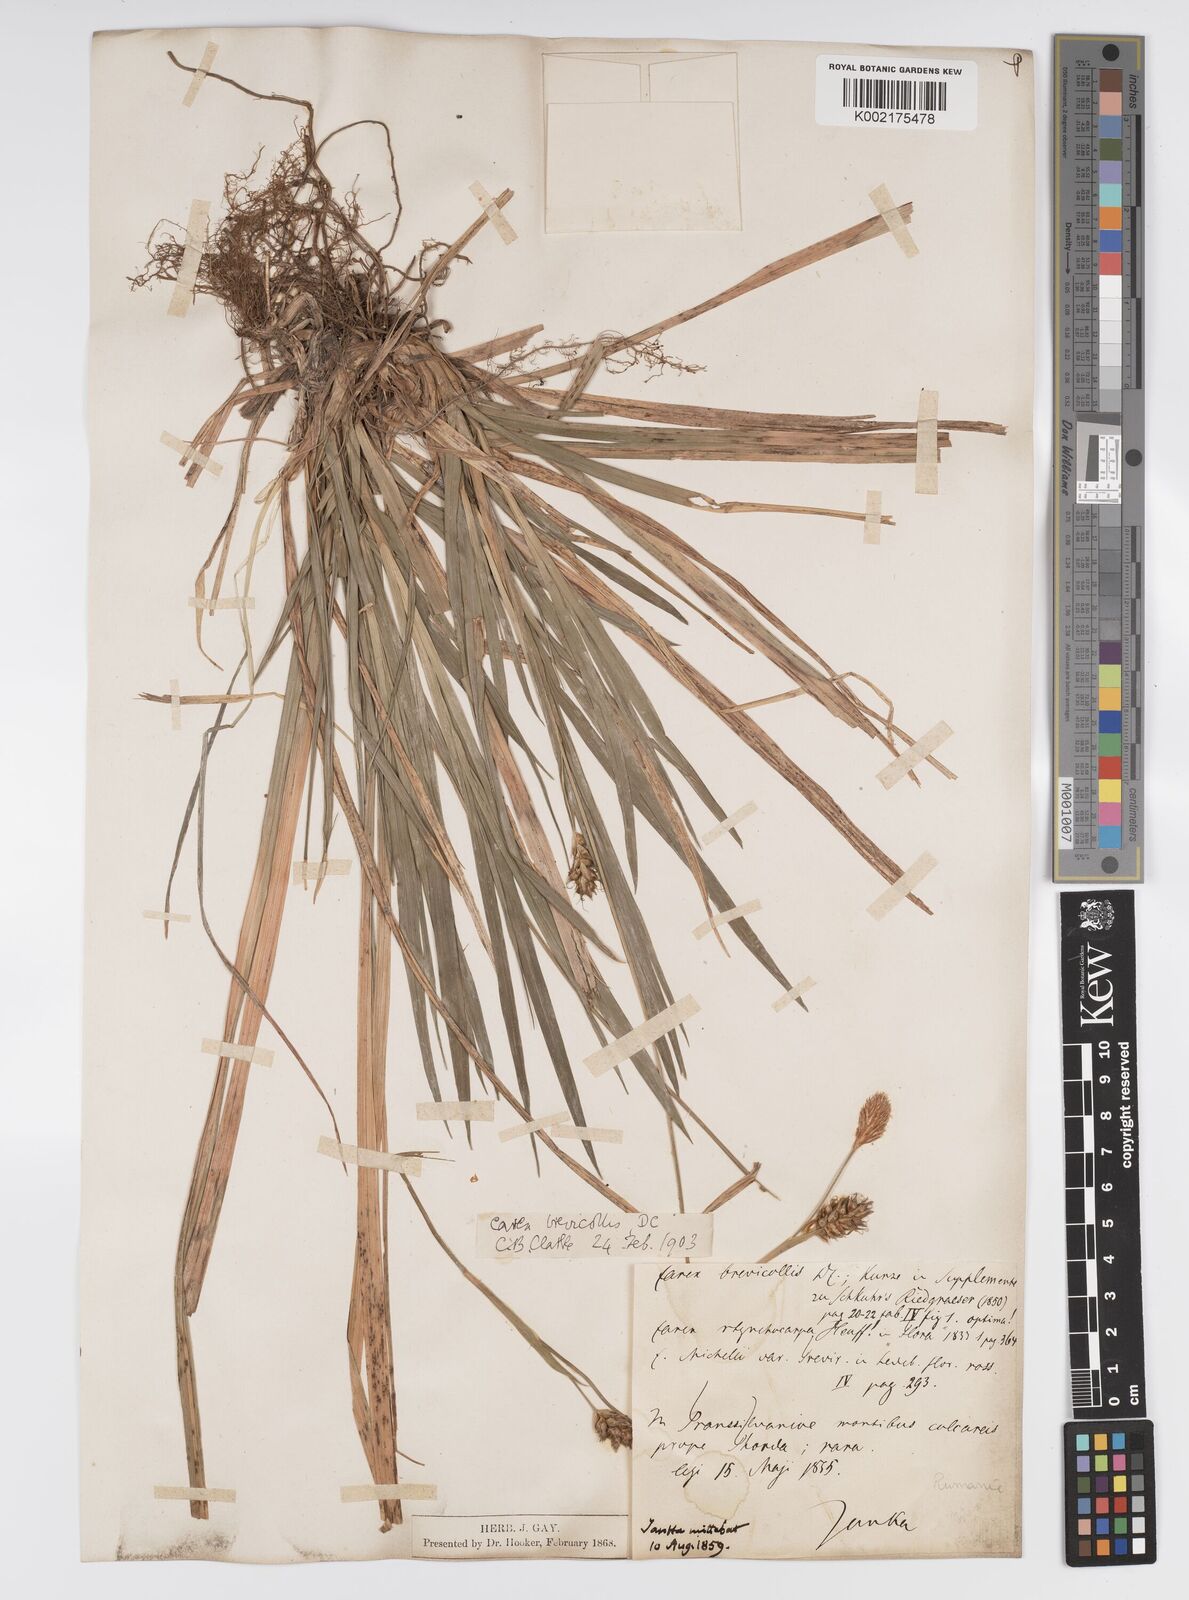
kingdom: Plantae
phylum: Tracheophyta
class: Liliopsida
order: Poales
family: Cyperaceae
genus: Carex
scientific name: Carex brevicollis
